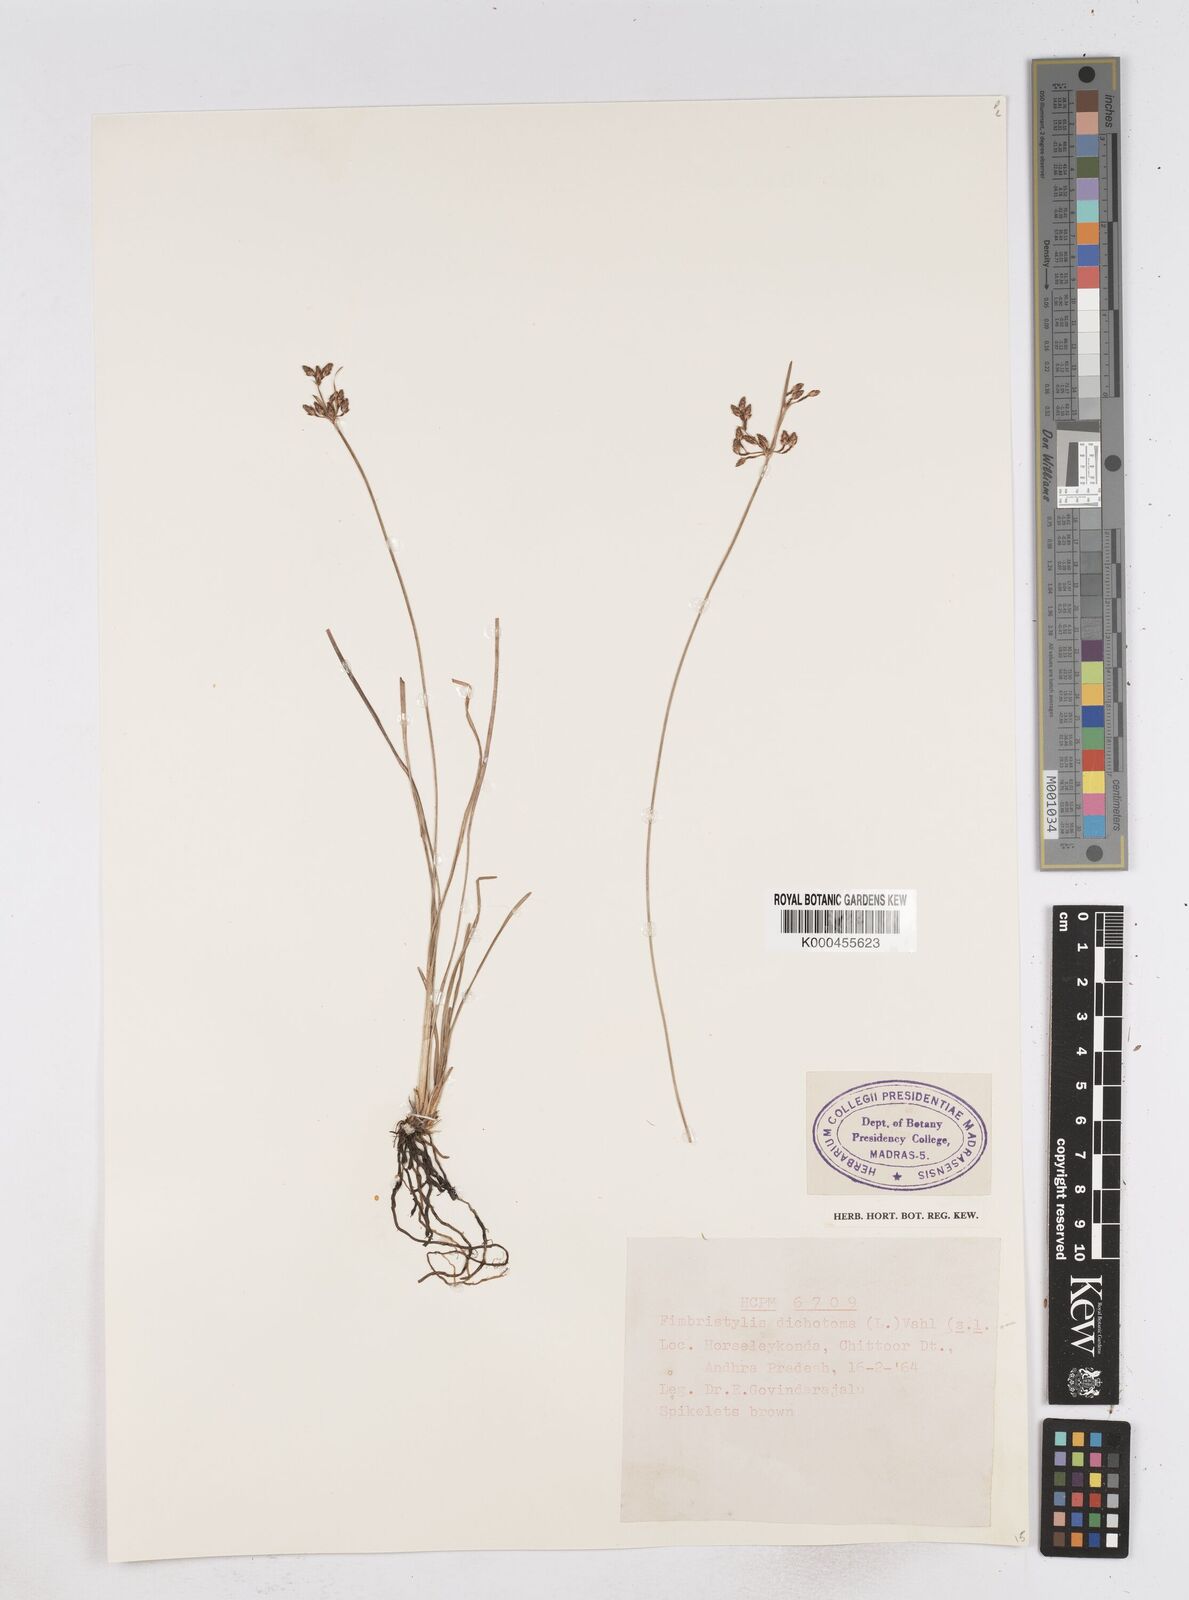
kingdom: Plantae
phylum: Tracheophyta
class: Liliopsida
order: Poales
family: Cyperaceae
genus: Fimbristylis
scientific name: Fimbristylis dichotoma
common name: Forked fimbry
